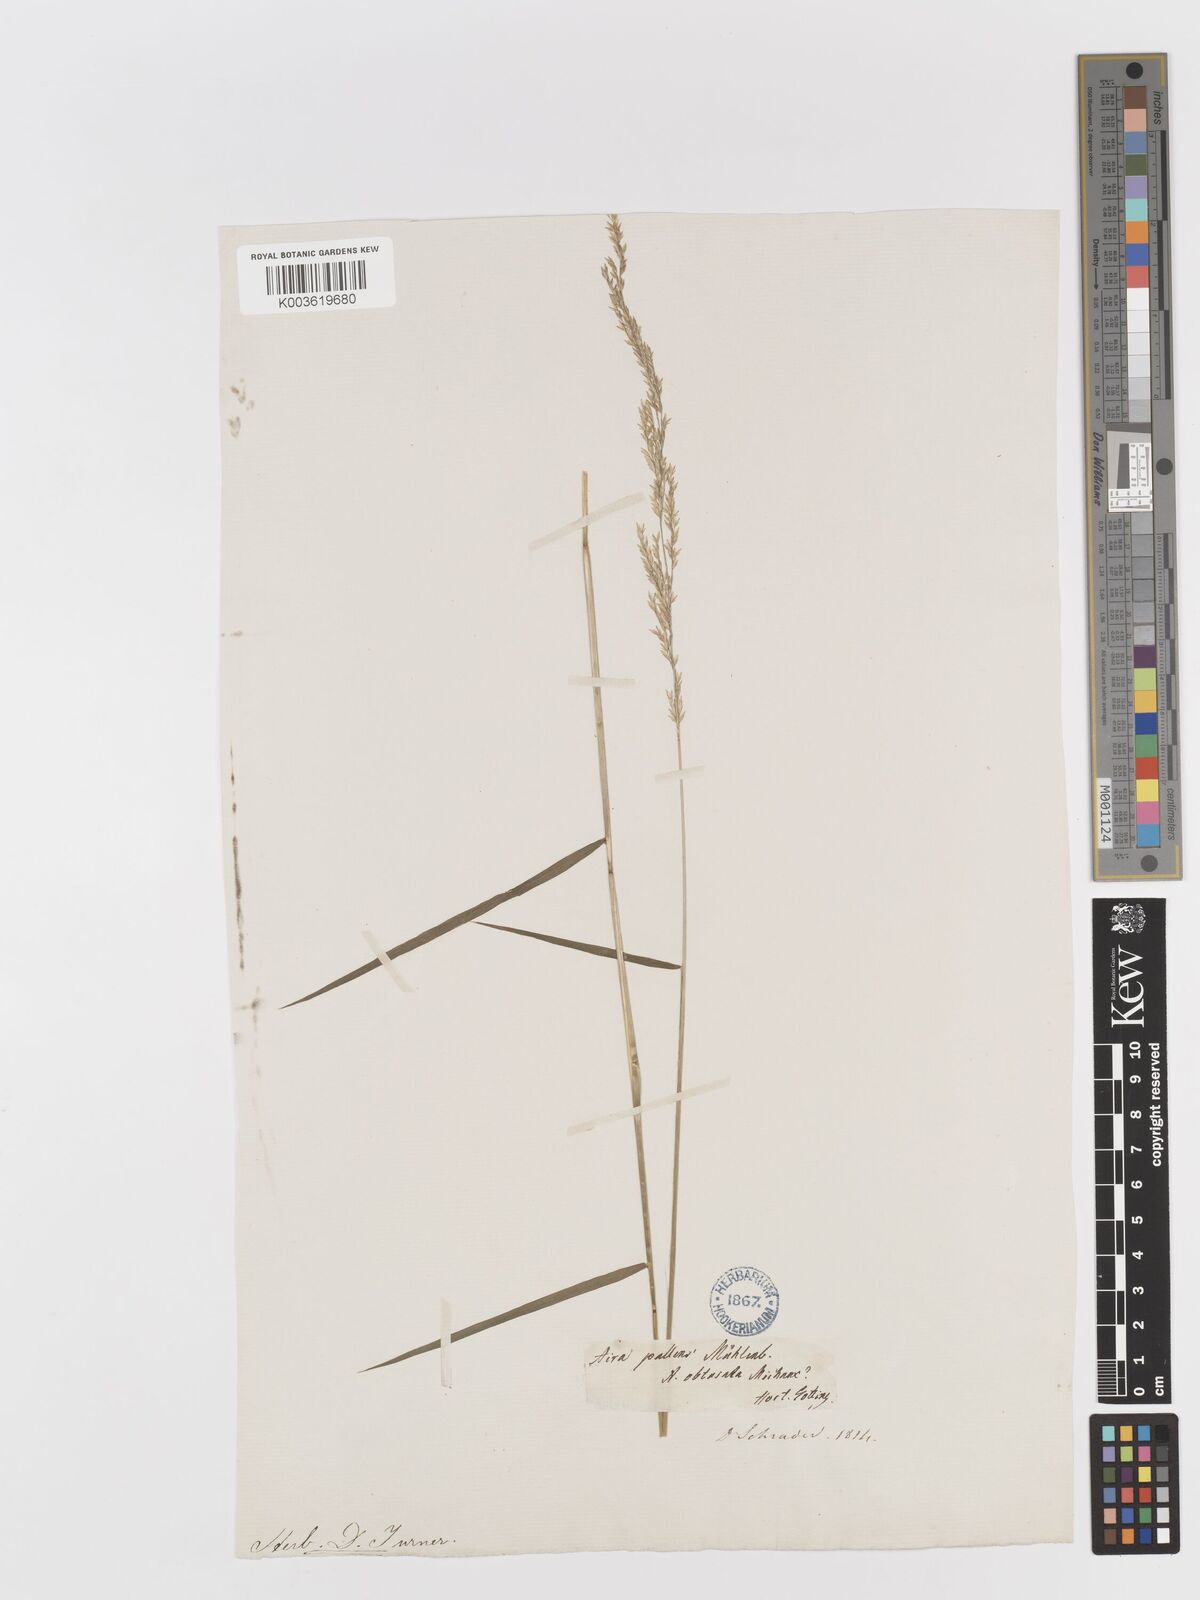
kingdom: Plantae
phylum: Tracheophyta
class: Liliopsida
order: Poales
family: Poaceae
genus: Sphenopholis
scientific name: Sphenopholis obtusata
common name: Prairie grass
